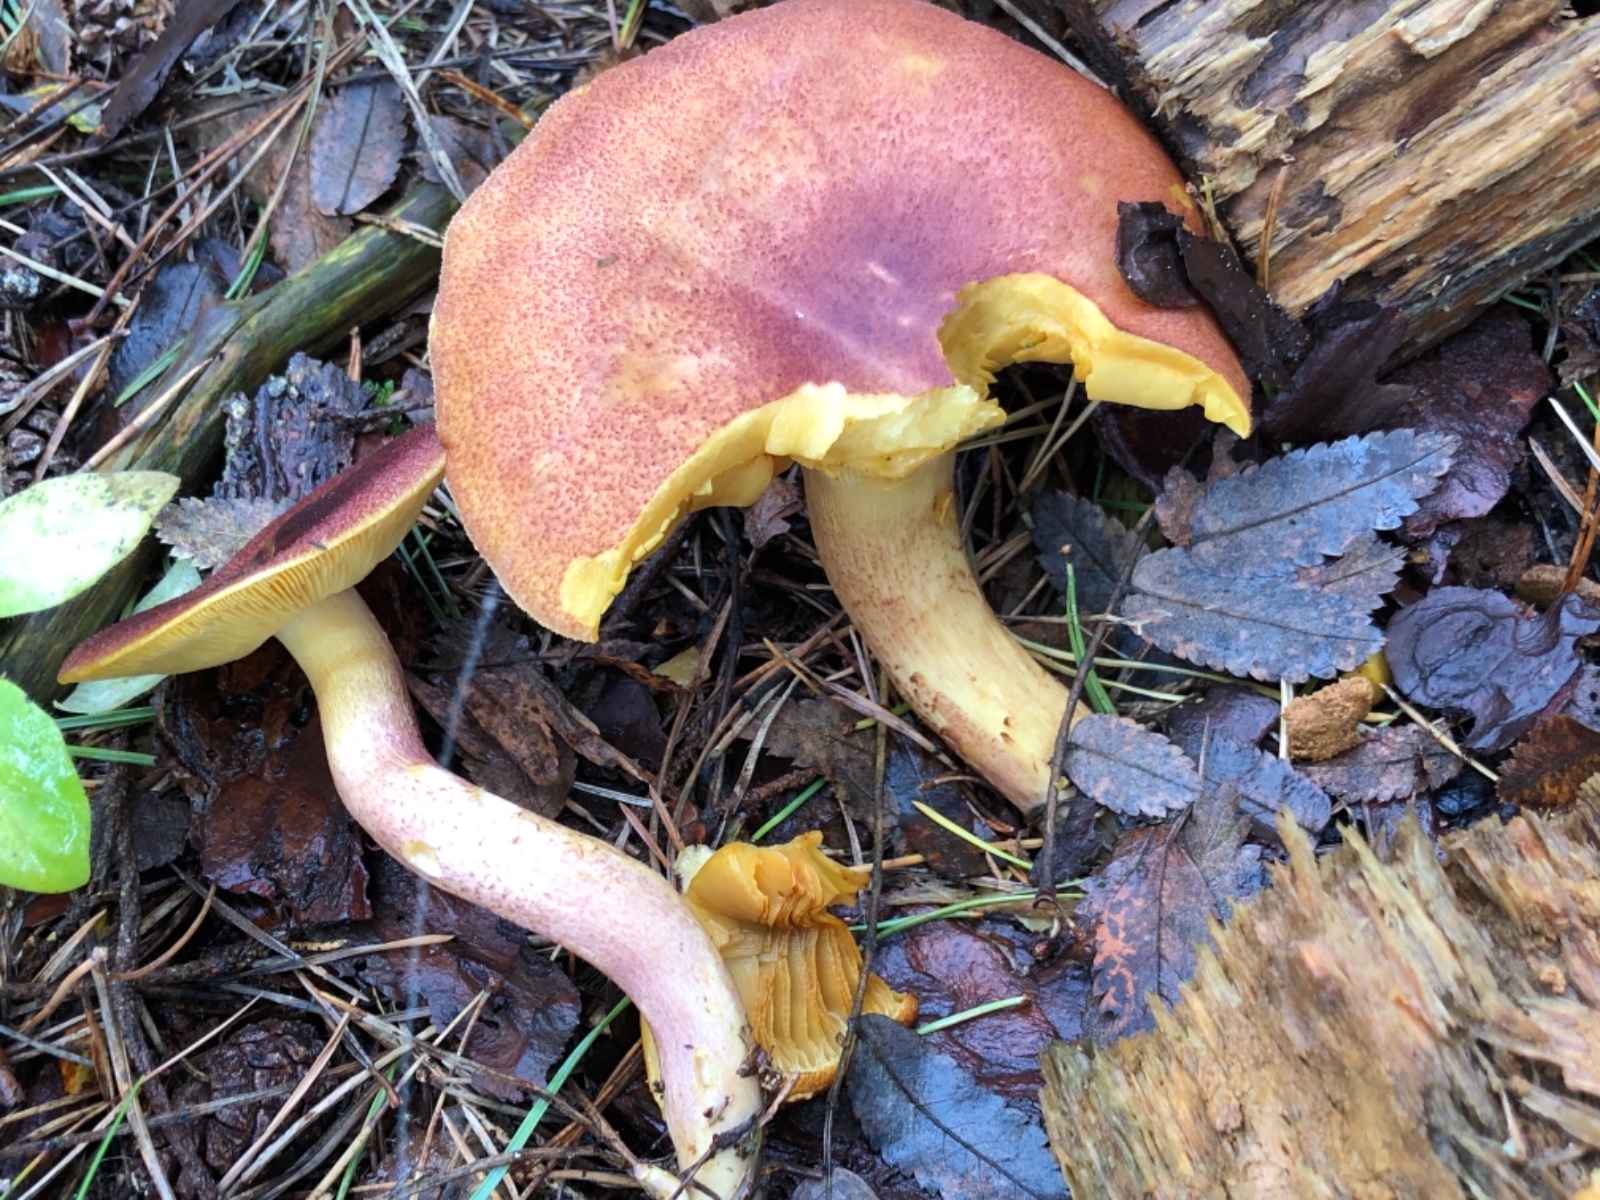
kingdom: Fungi
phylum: Basidiomycota
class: Agaricomycetes
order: Agaricales
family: Tricholomataceae
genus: Tricholomopsis
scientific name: Tricholomopsis rutilans
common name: purpur-væbnerhat
